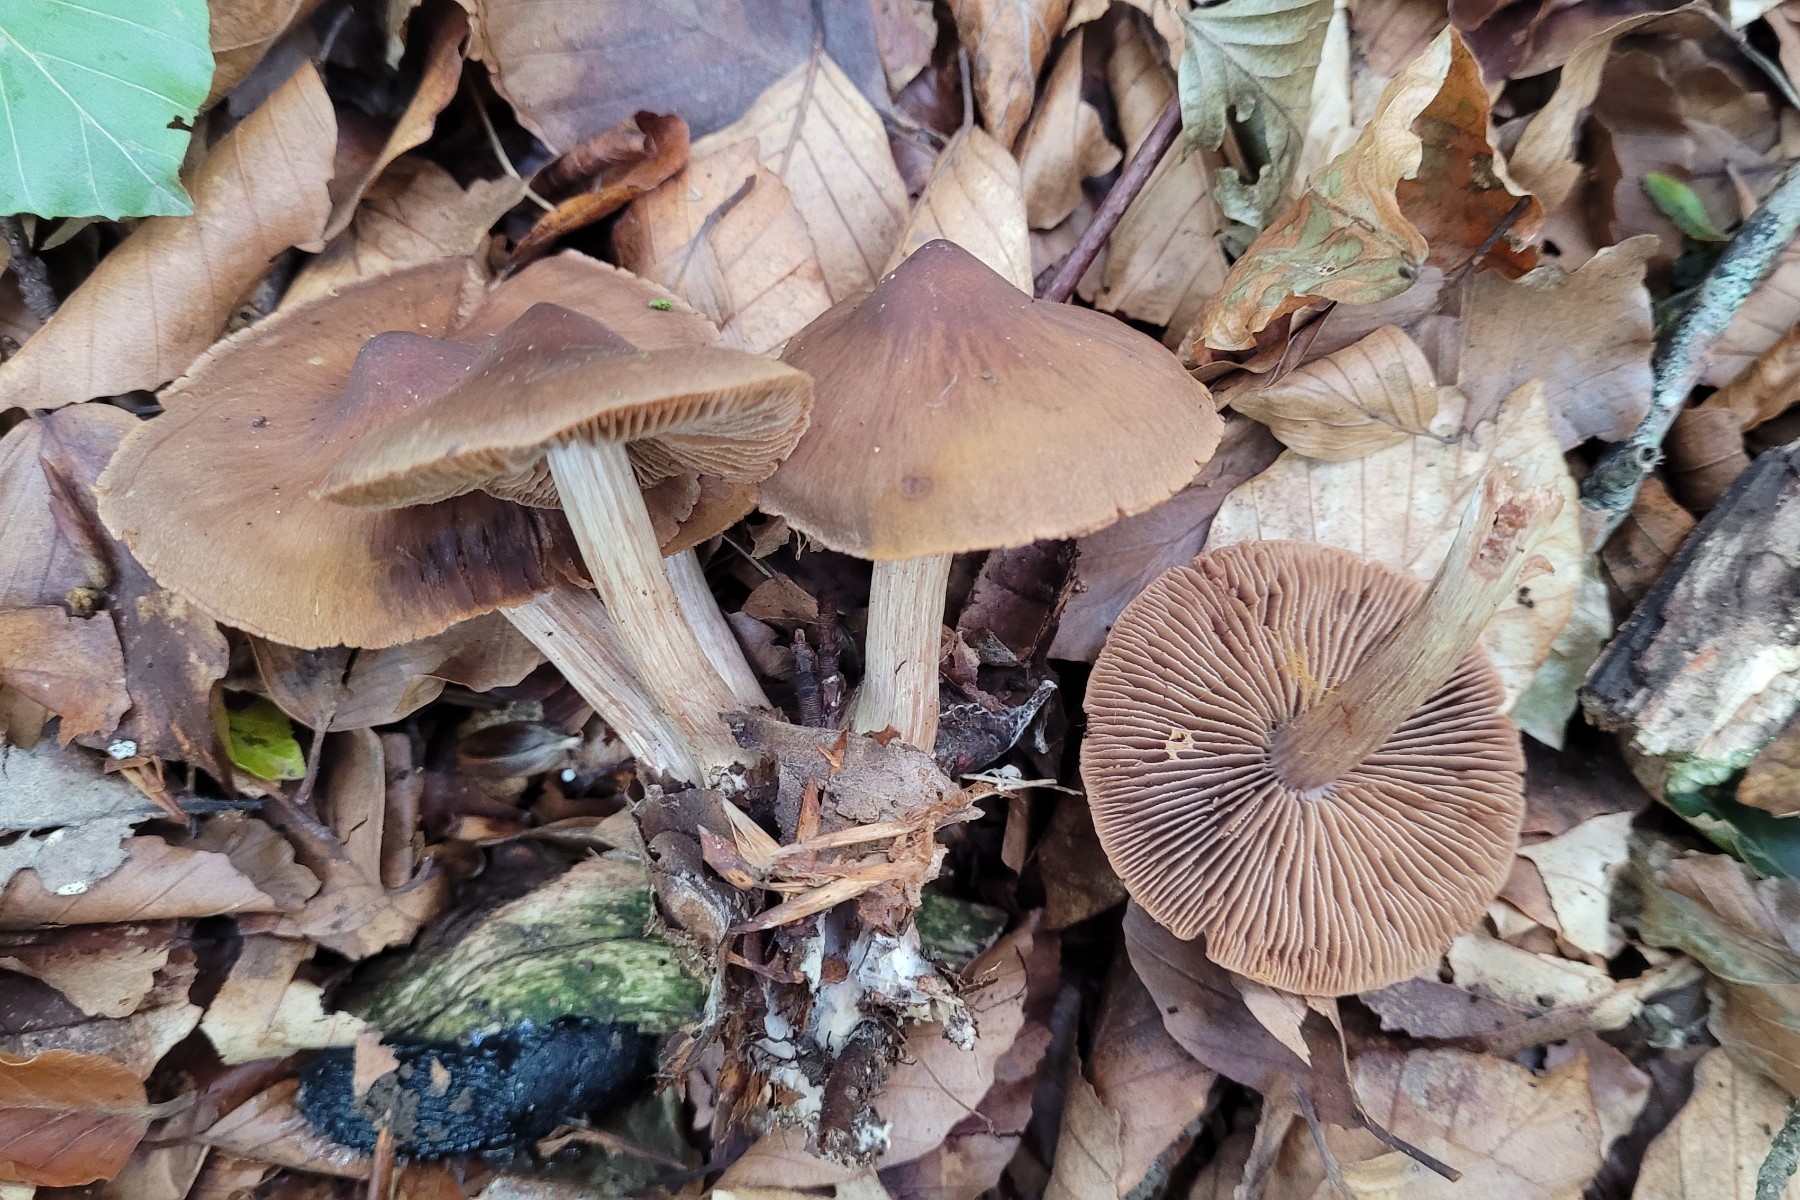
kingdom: Fungi
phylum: Basidiomycota
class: Agaricomycetes
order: Agaricales
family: Cortinariaceae
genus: Cortinarius
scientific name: Cortinarius inconspicuus
